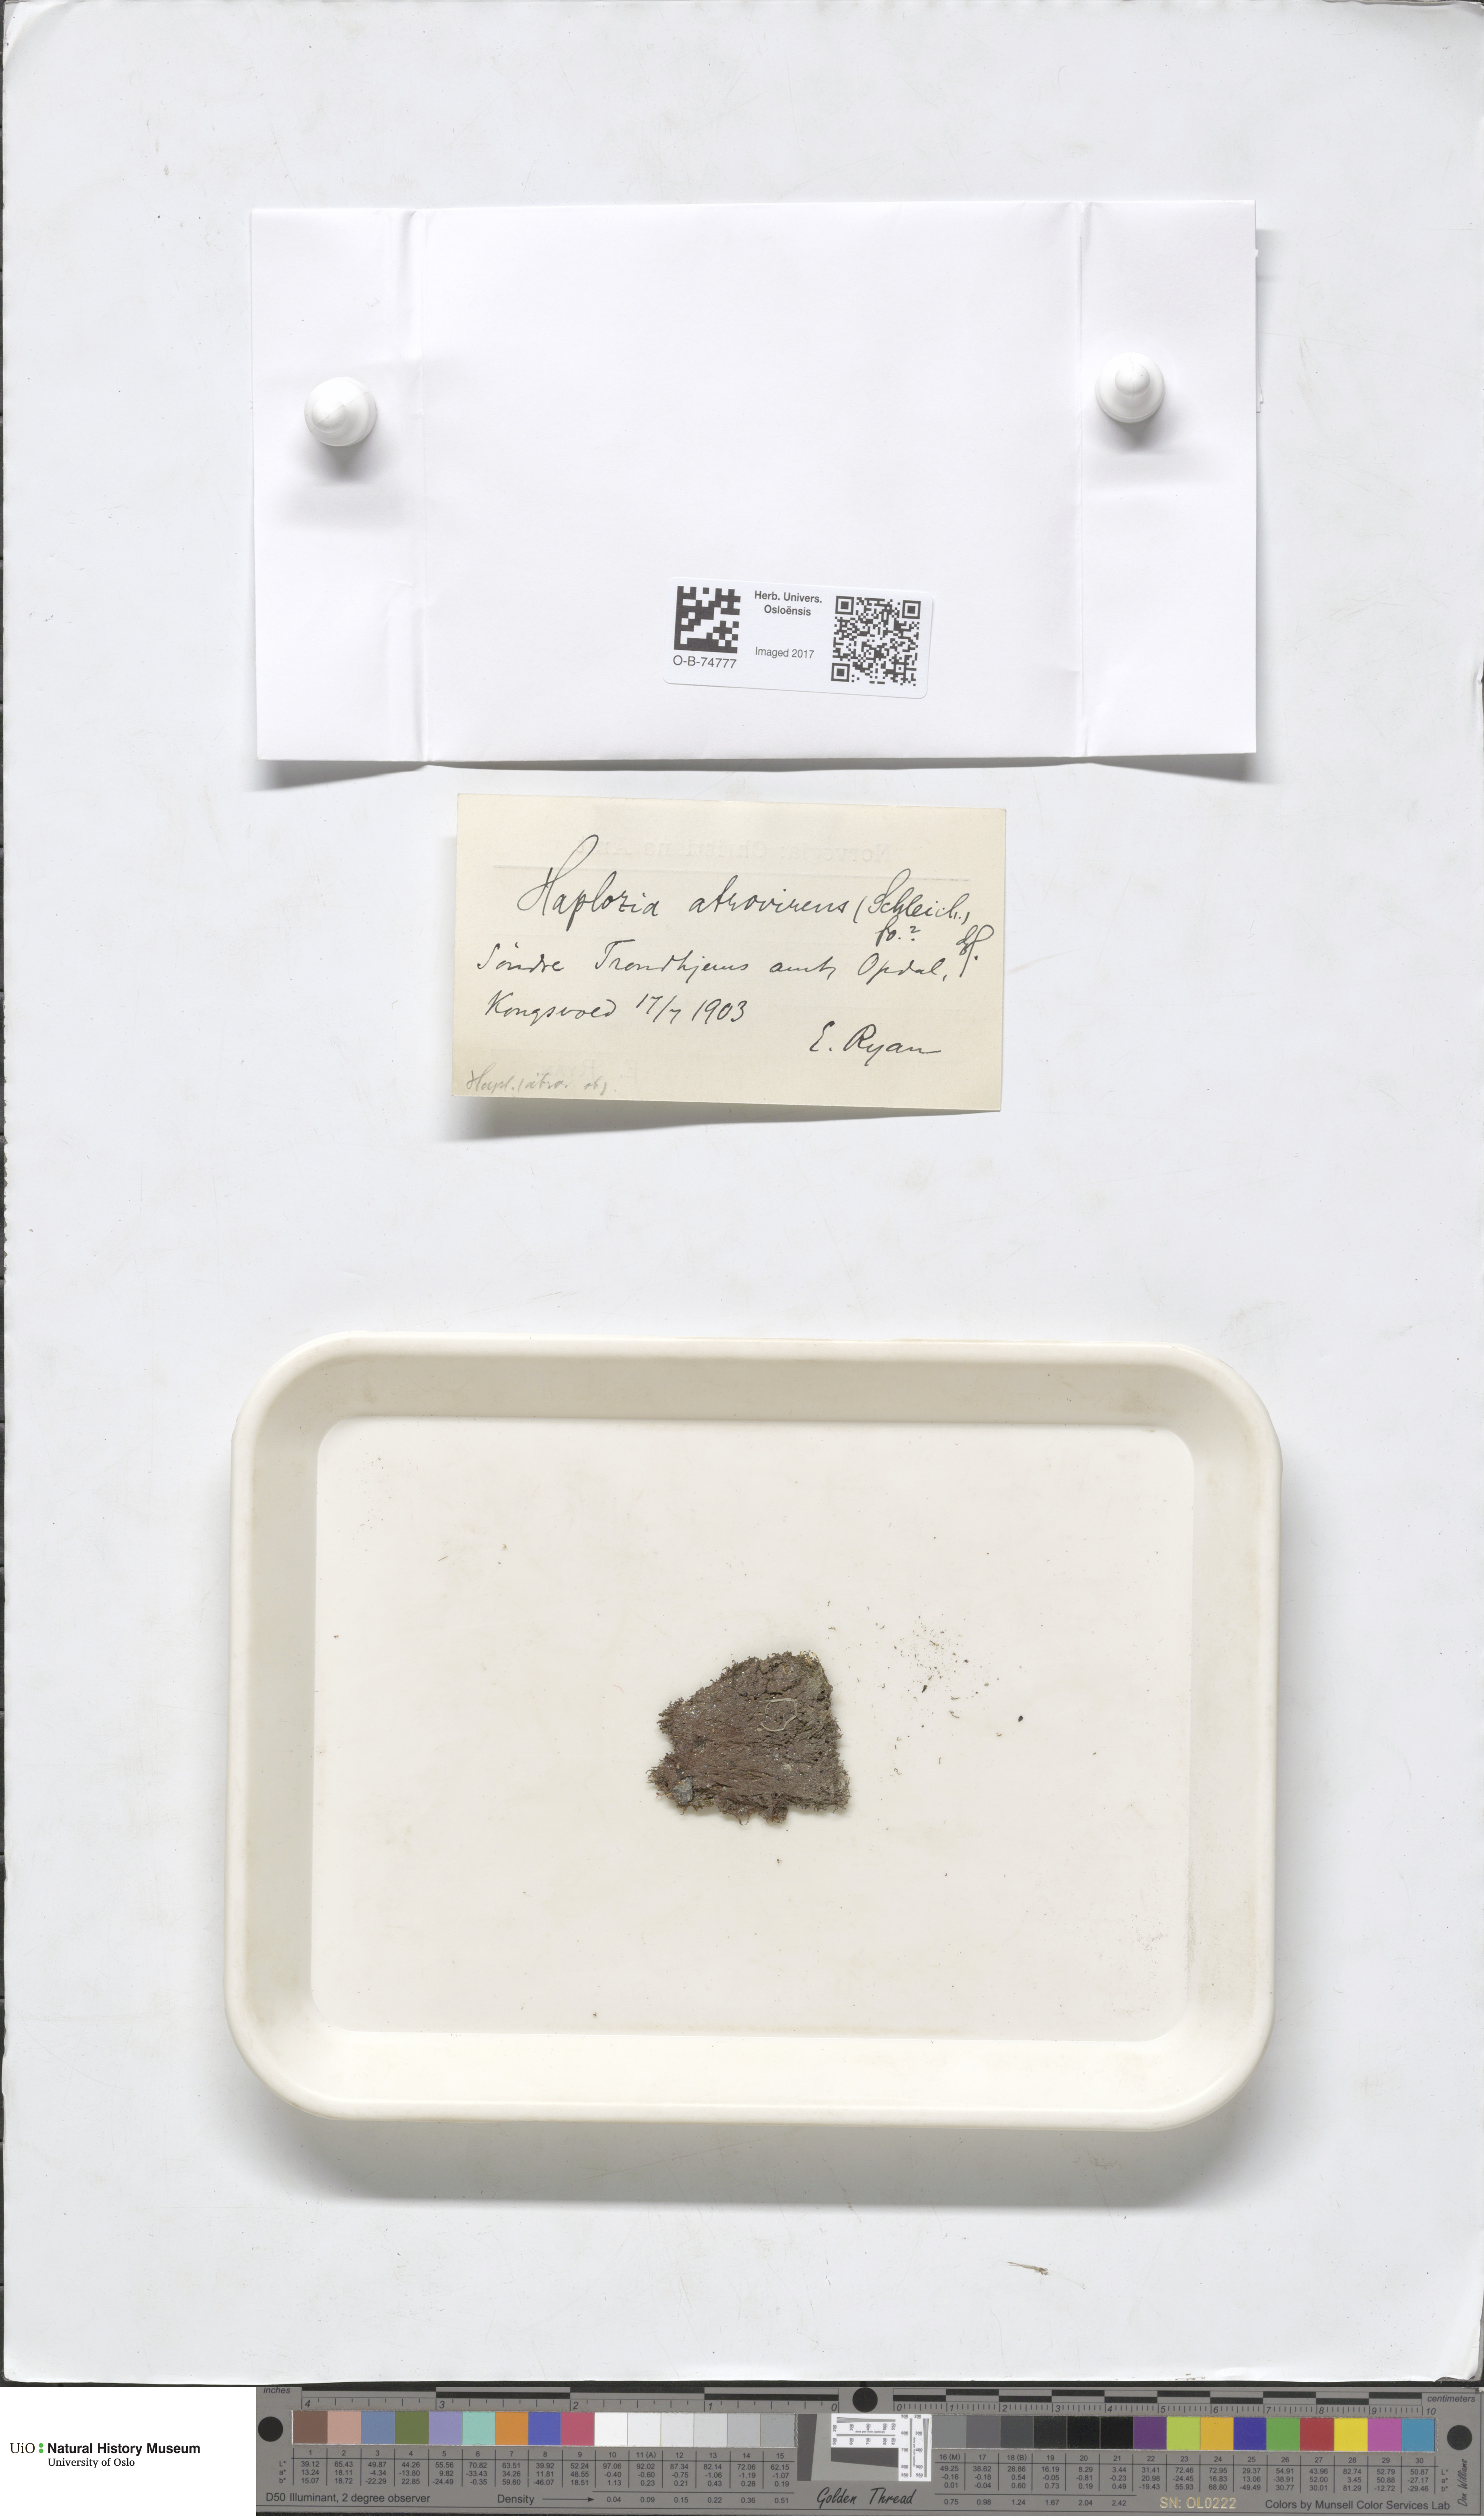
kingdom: Plantae
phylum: Marchantiophyta
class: Jungermanniopsida
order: Jungermanniales
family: Jungermanniaceae
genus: Jungermannia
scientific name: Jungermannia atrovirens
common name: Dark-green flapwort
